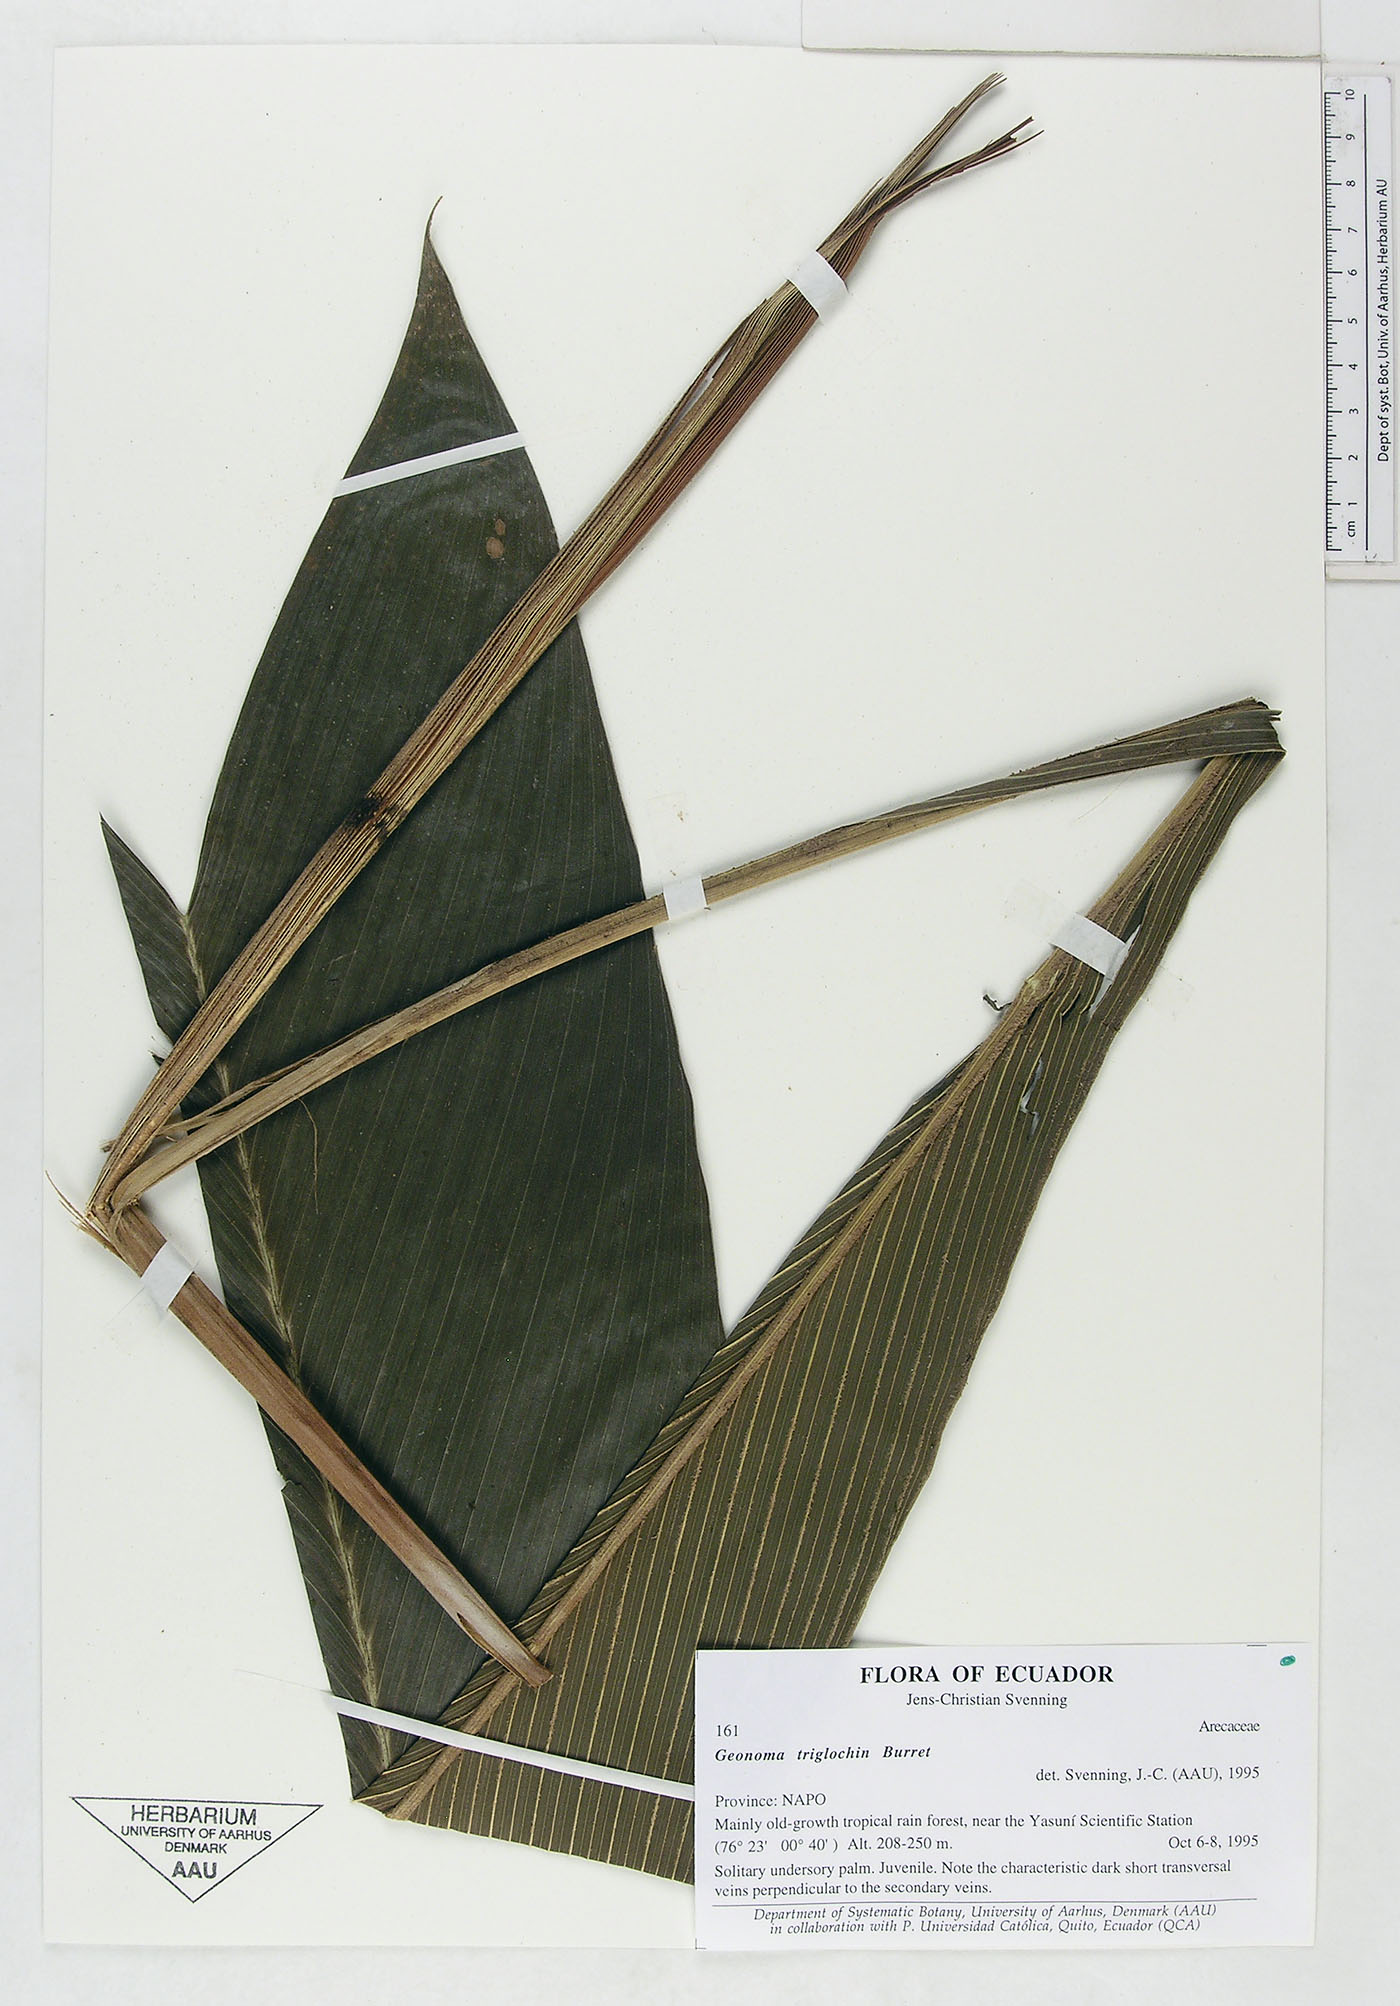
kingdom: Plantae
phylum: Tracheophyta
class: Liliopsida
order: Arecales
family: Arecaceae
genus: Geonoma
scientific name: Geonoma triglochin
